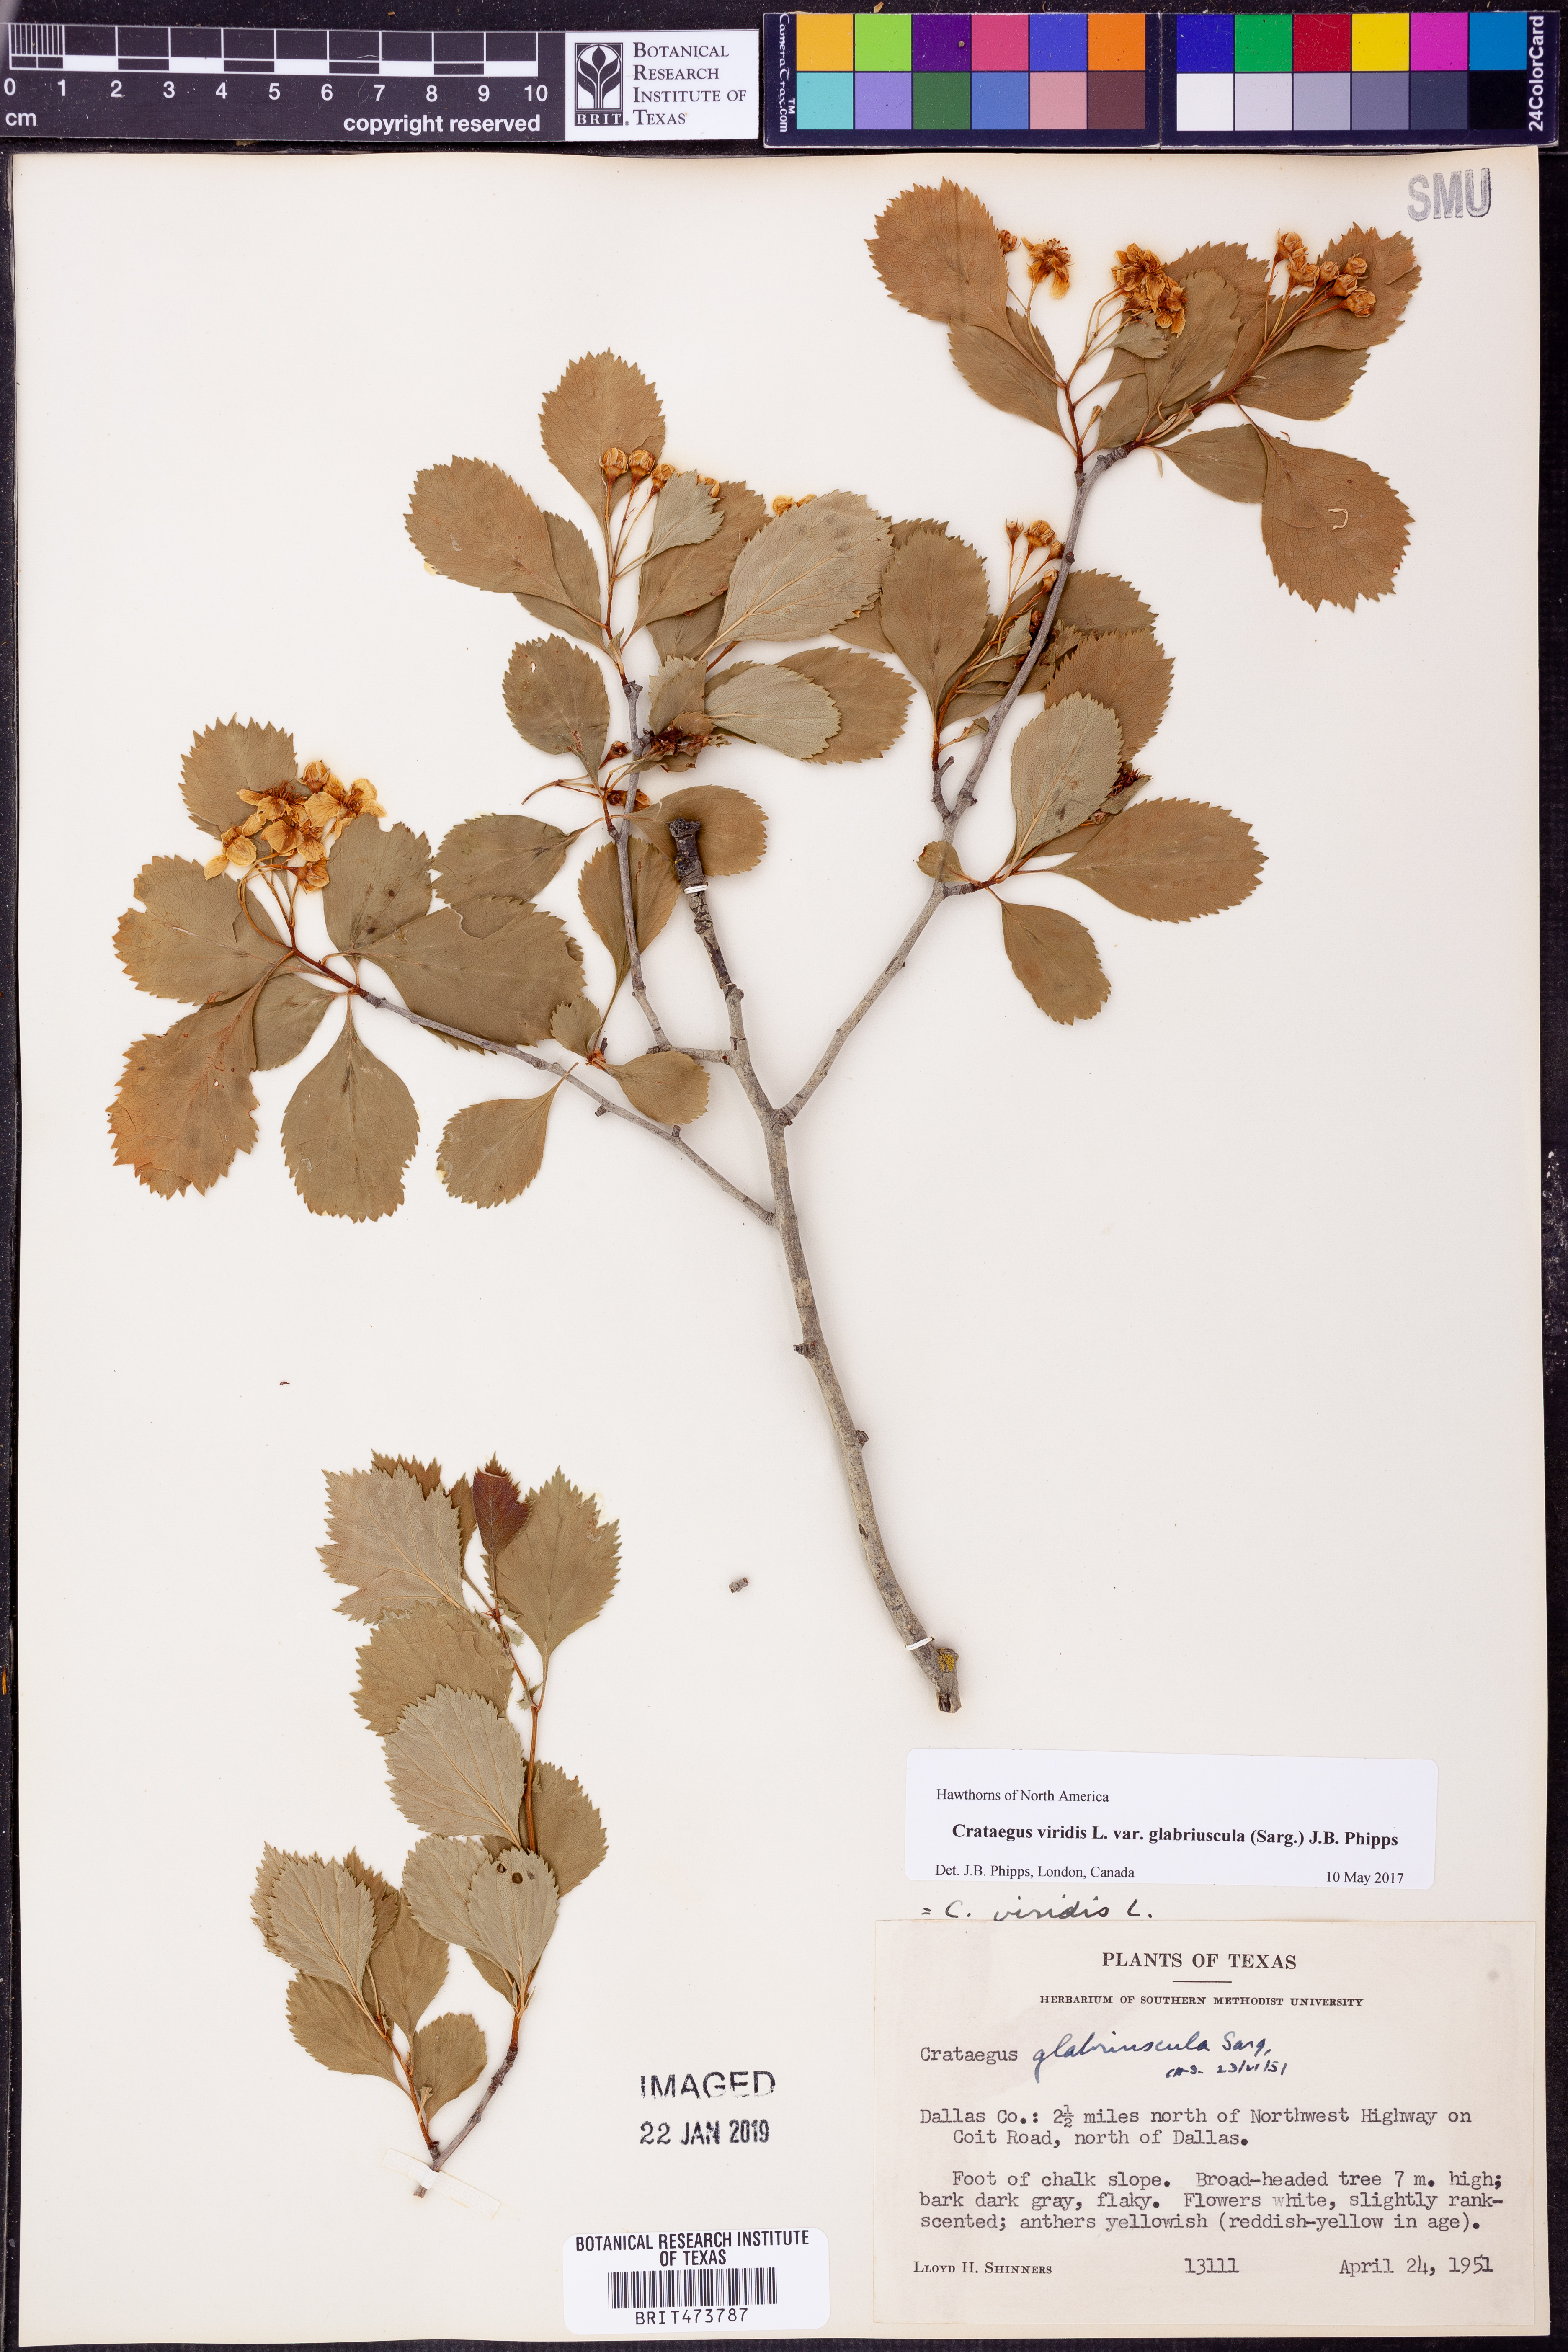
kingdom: Plantae
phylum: Tracheophyta
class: Magnoliopsida
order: Rosales
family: Rosaceae
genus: Crataegus
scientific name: Crataegus viridis
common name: Southernthorn
